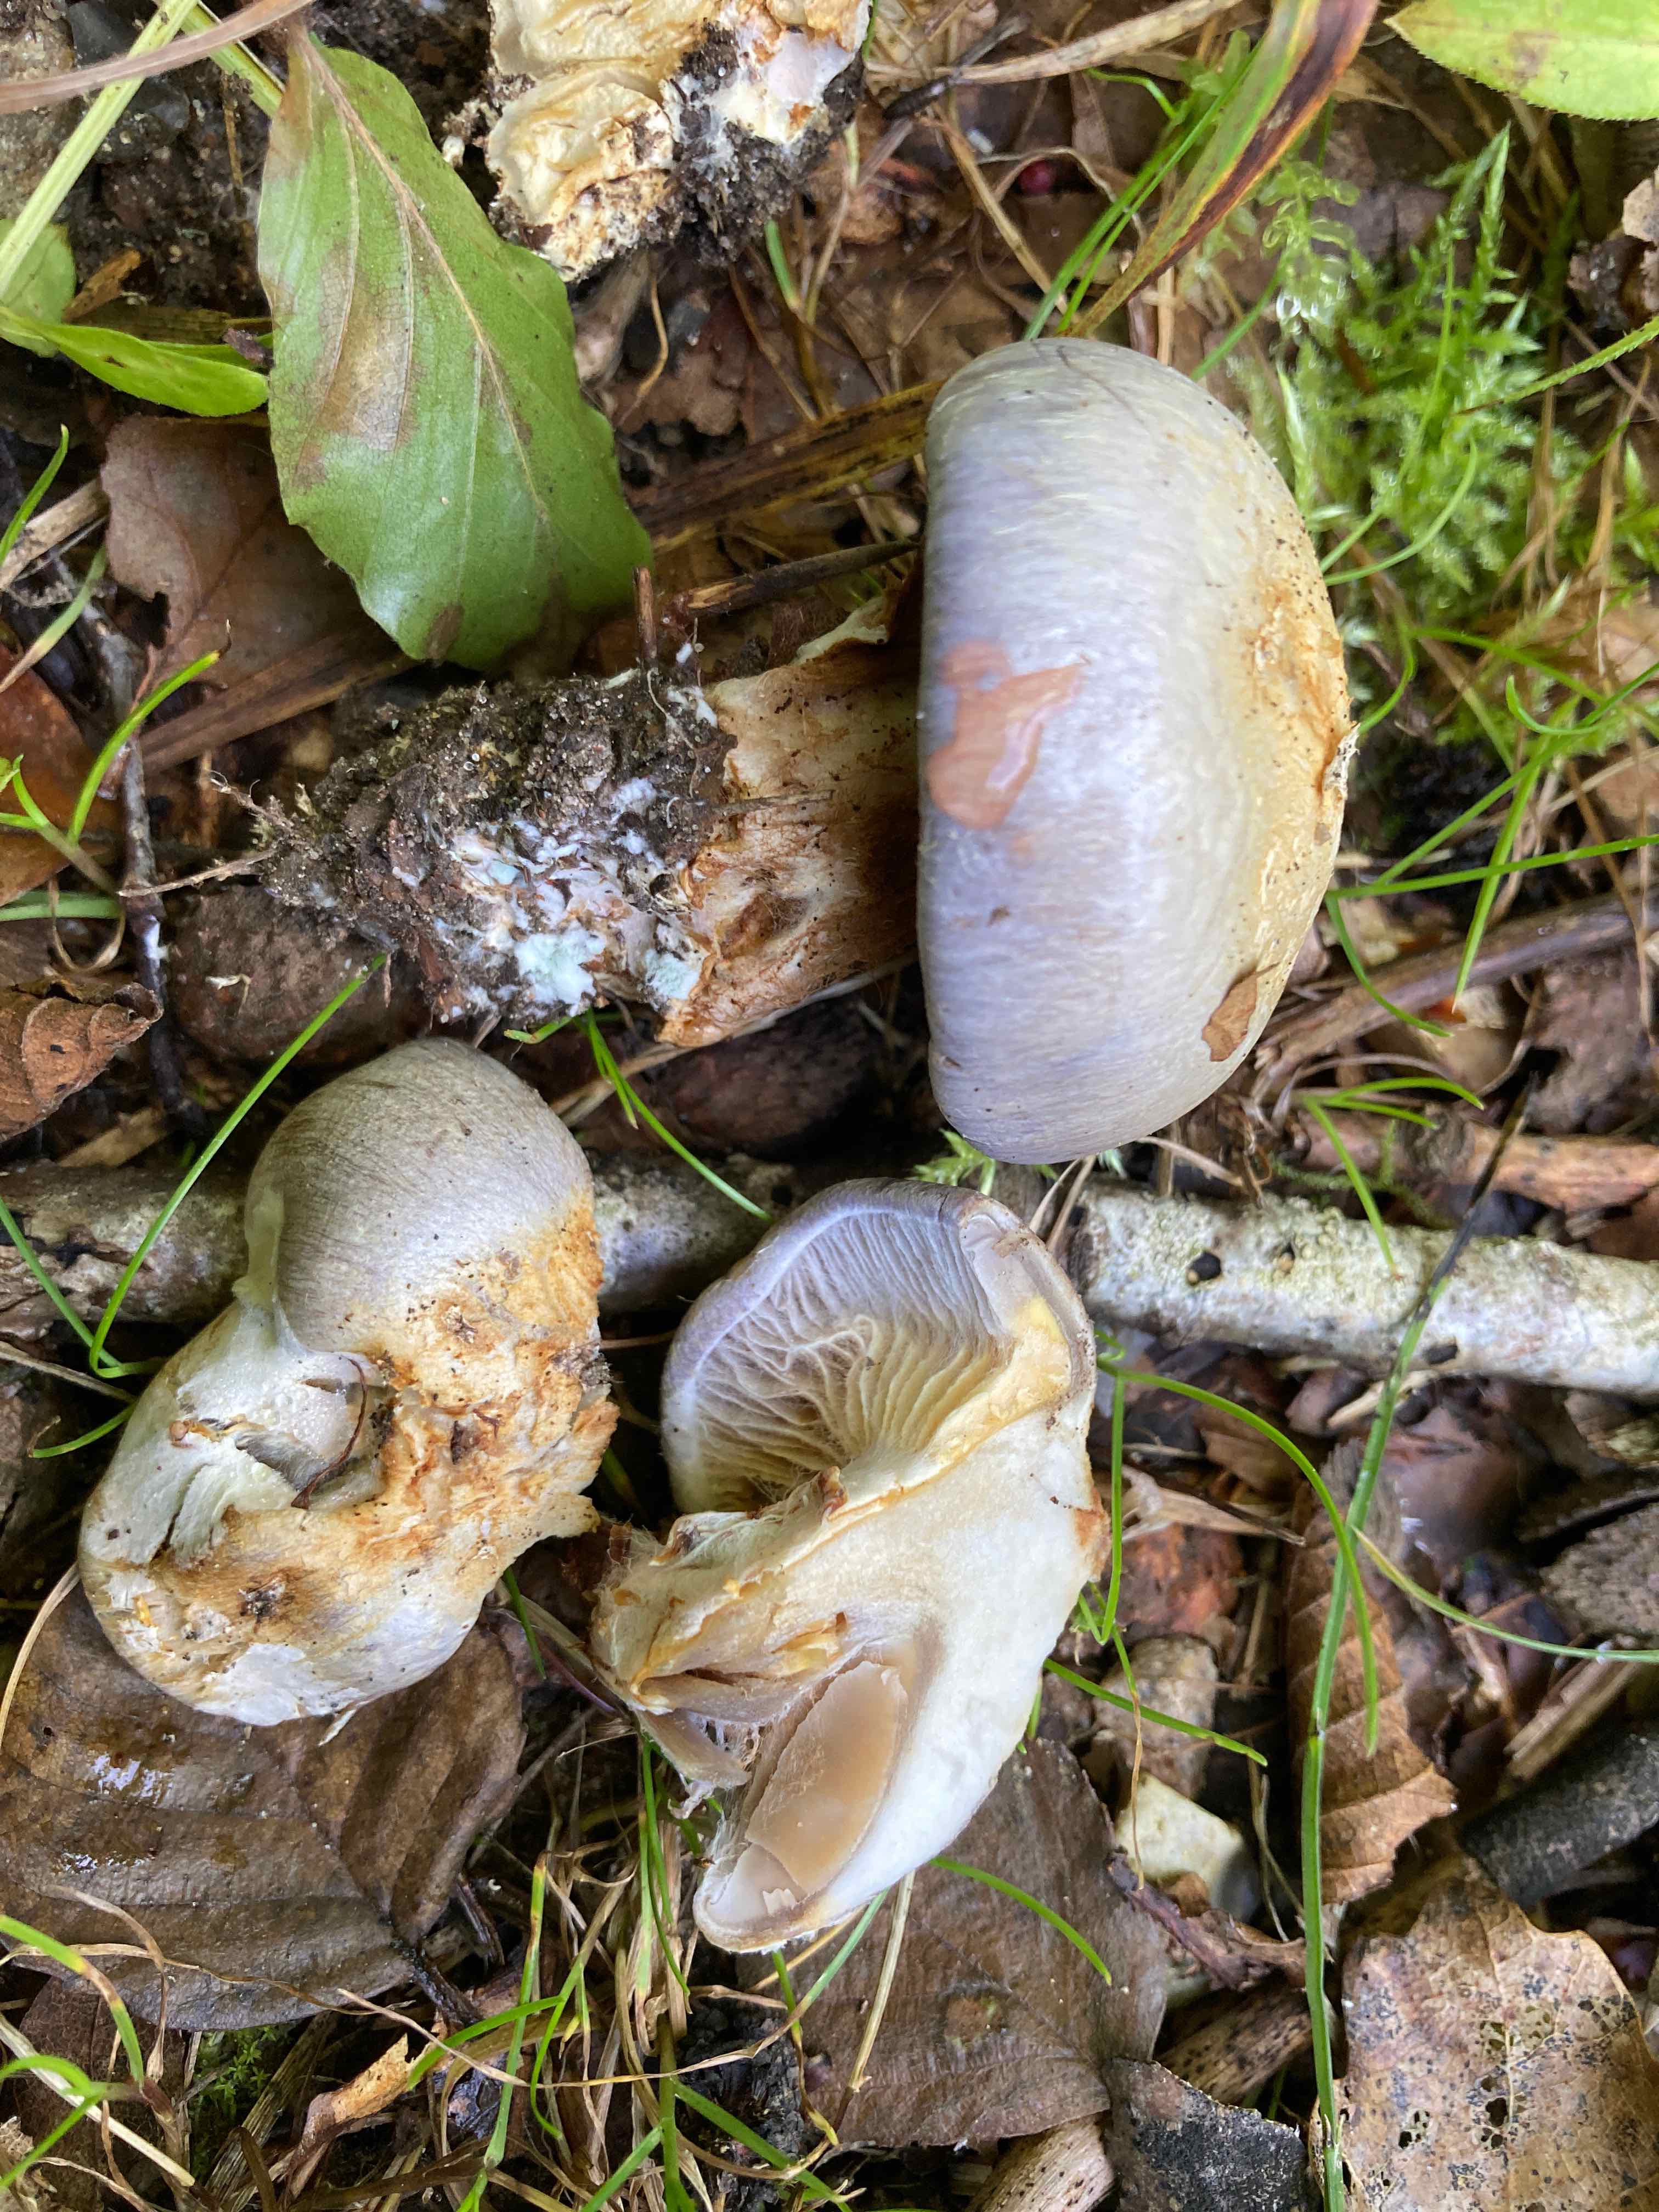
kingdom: Fungi
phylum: Basidiomycota
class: Agaricomycetes
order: Agaricales
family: Cortinariaceae
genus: Cortinarius
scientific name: Cortinarius caerulescens
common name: blåkødet slørhat
